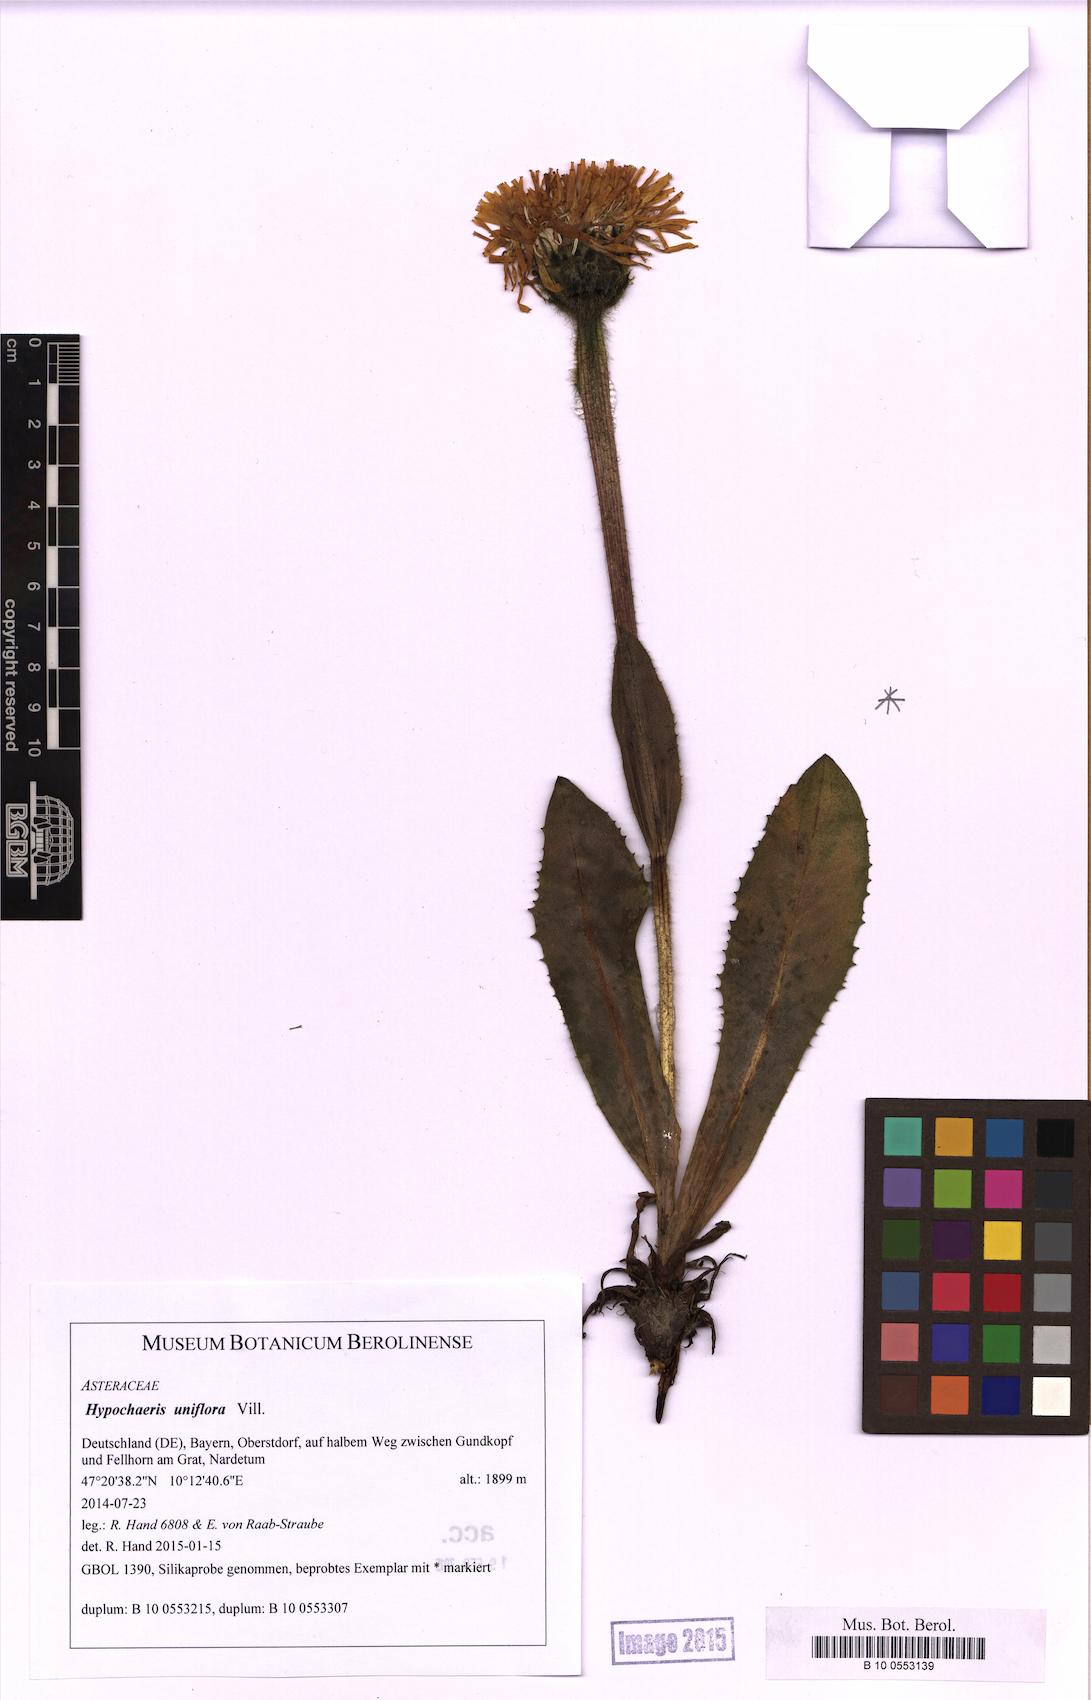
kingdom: Plantae
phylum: Tracheophyta
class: Magnoliopsida
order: Asterales
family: Asteraceae
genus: Trommsdorffia
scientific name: Trommsdorffia uniflora
